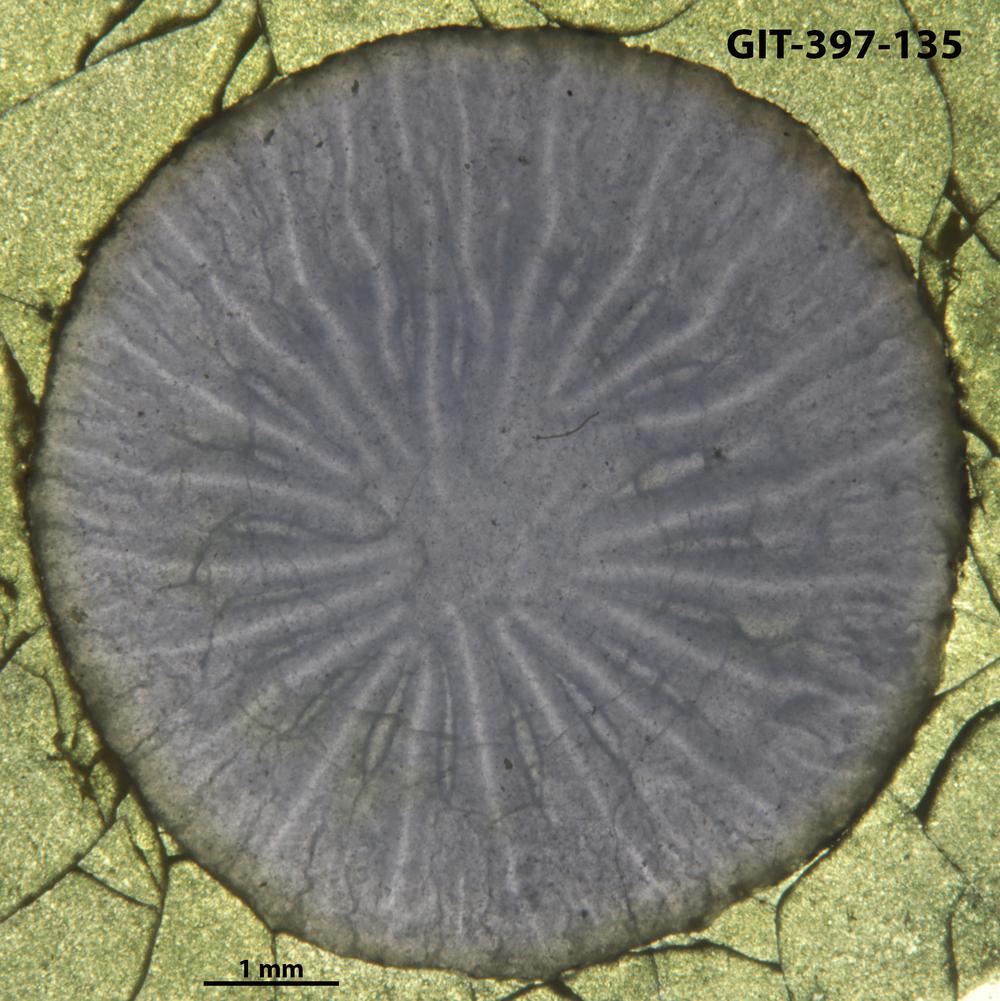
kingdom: Animalia
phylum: Cnidaria
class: Anthozoa
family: Lykophyllidae
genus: Pycnactis
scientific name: Pycnactis
